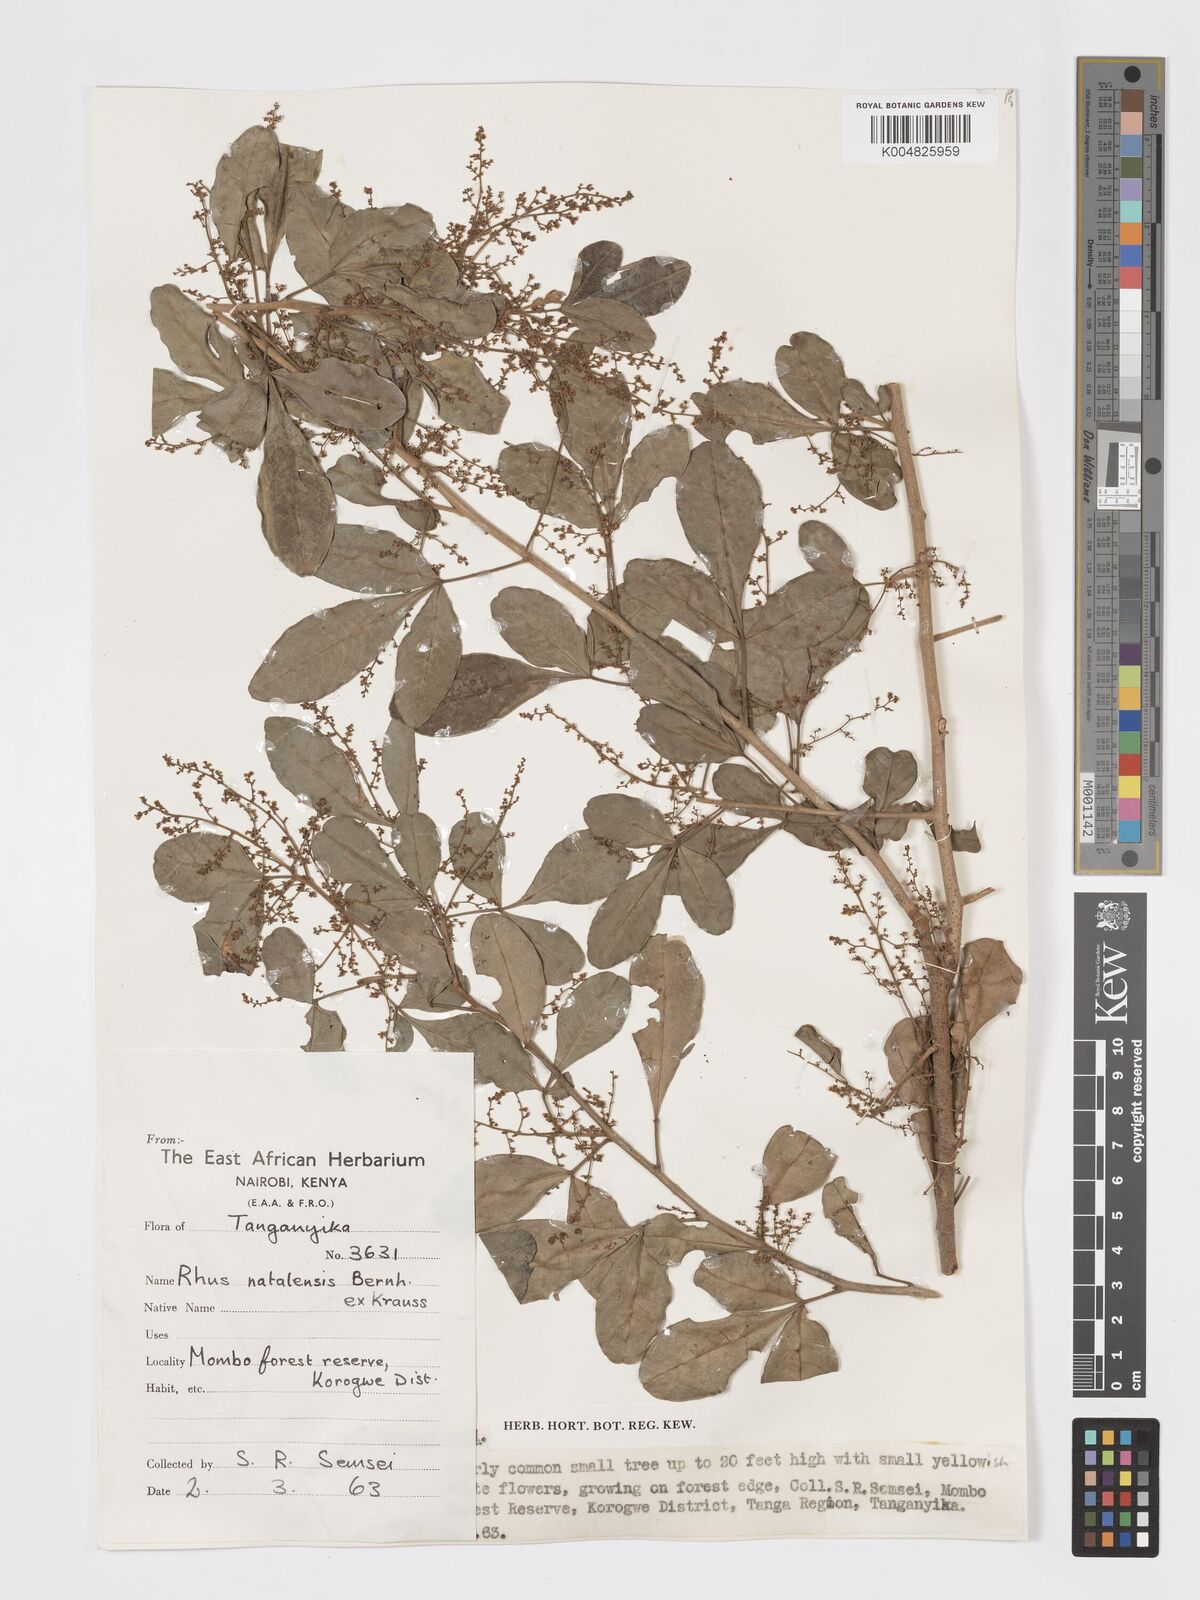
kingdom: Plantae
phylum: Tracheophyta
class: Magnoliopsida
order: Sapindales
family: Anacardiaceae
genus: Searsia
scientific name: Searsia natalensis
